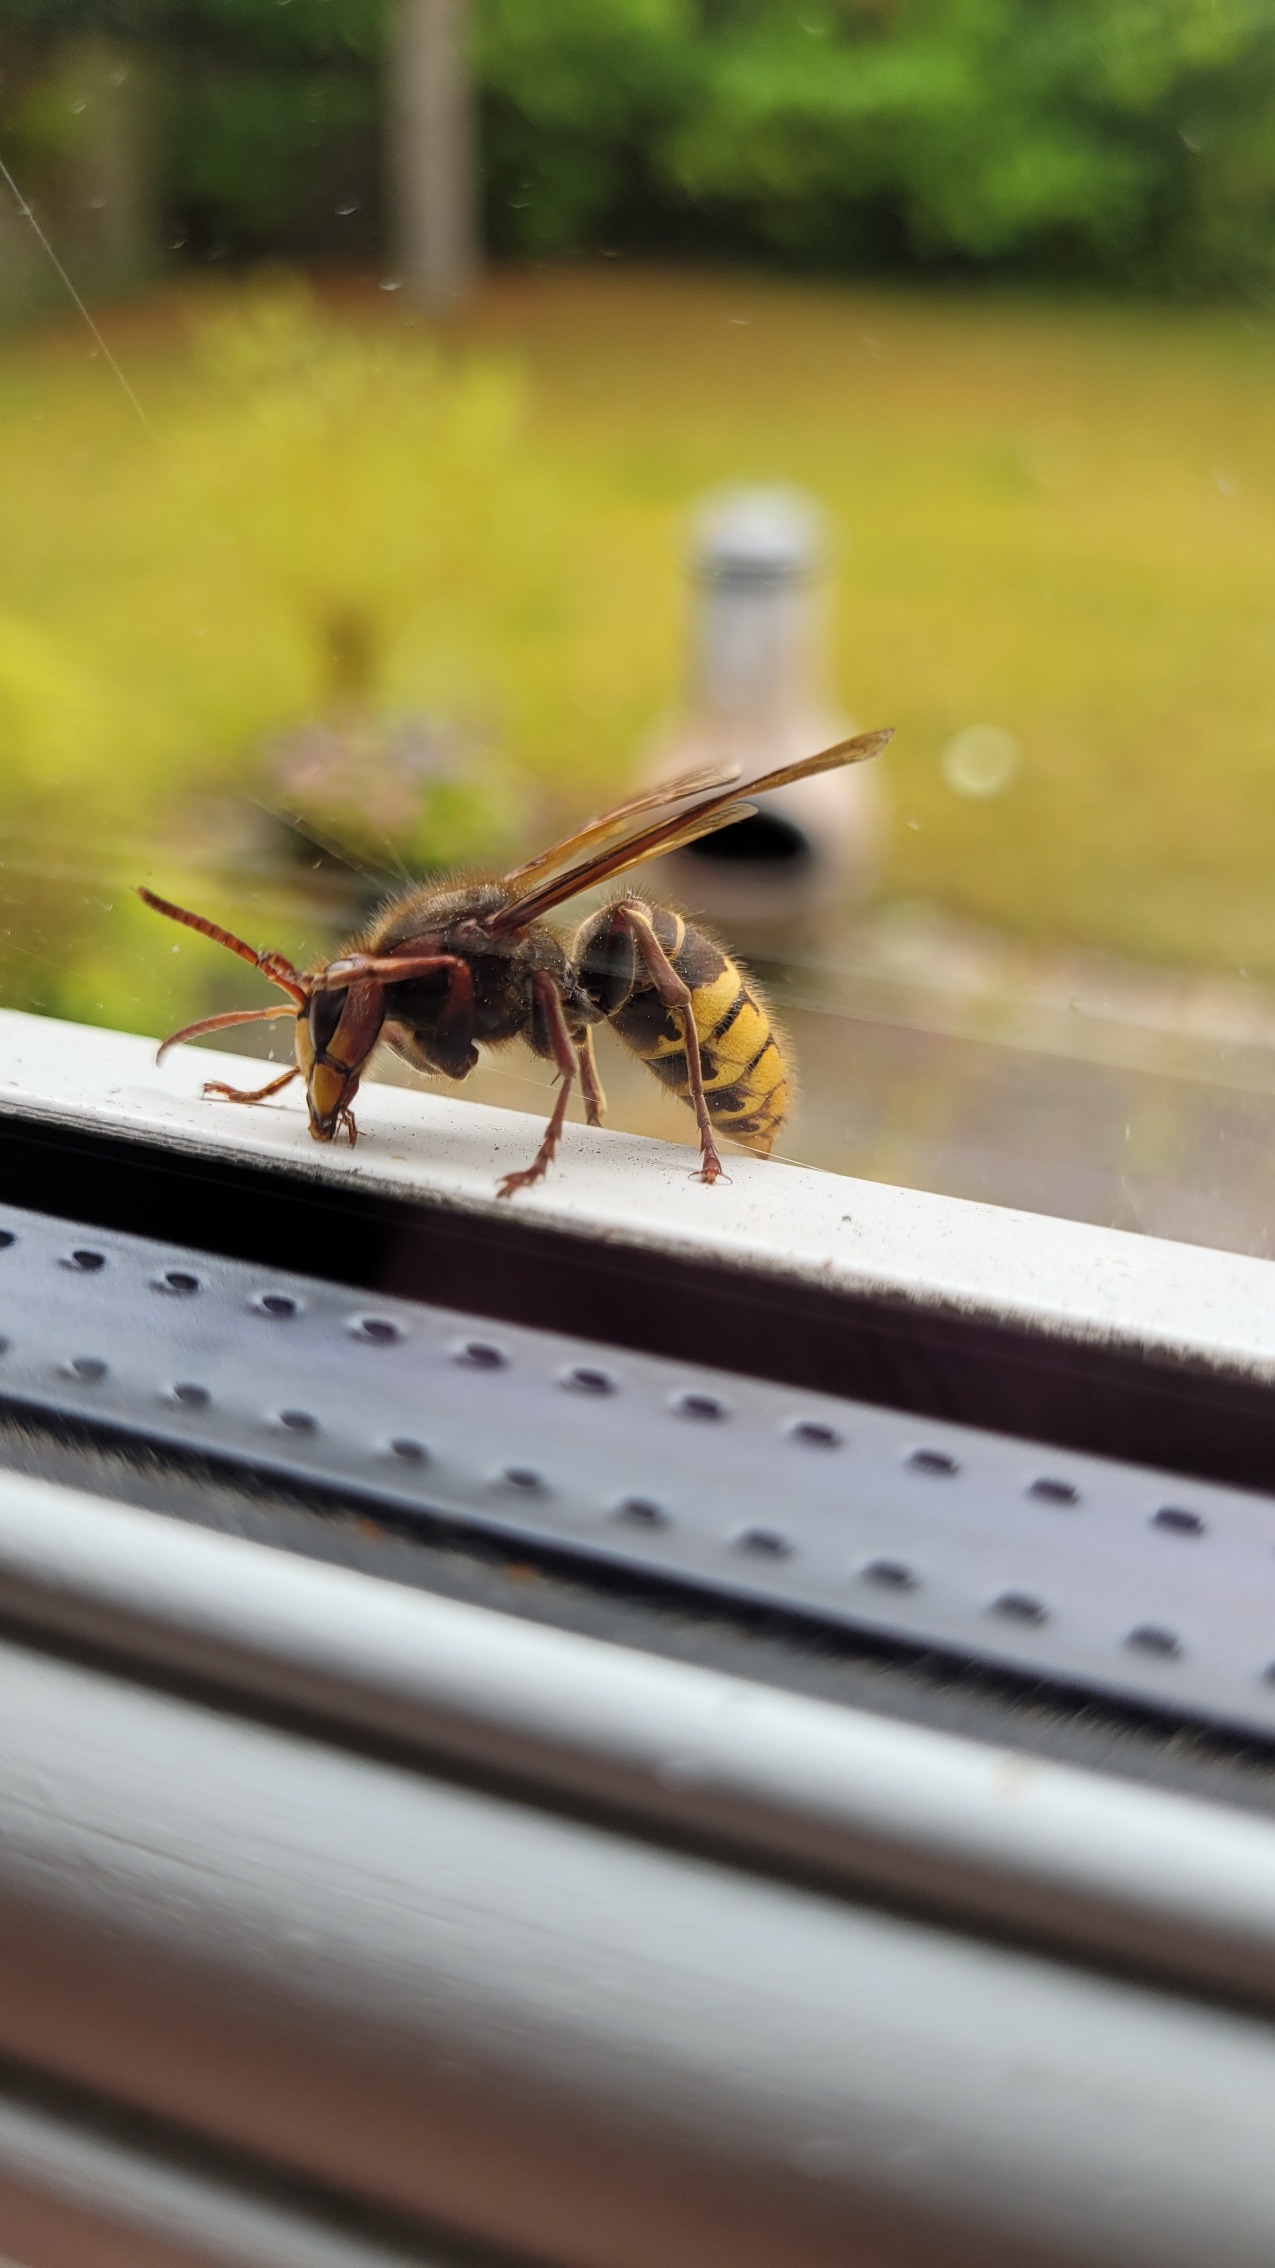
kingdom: Animalia
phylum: Arthropoda
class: Insecta
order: Hymenoptera
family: Vespidae
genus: Vespa
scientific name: Vespa crabro
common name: Stor gedehams
